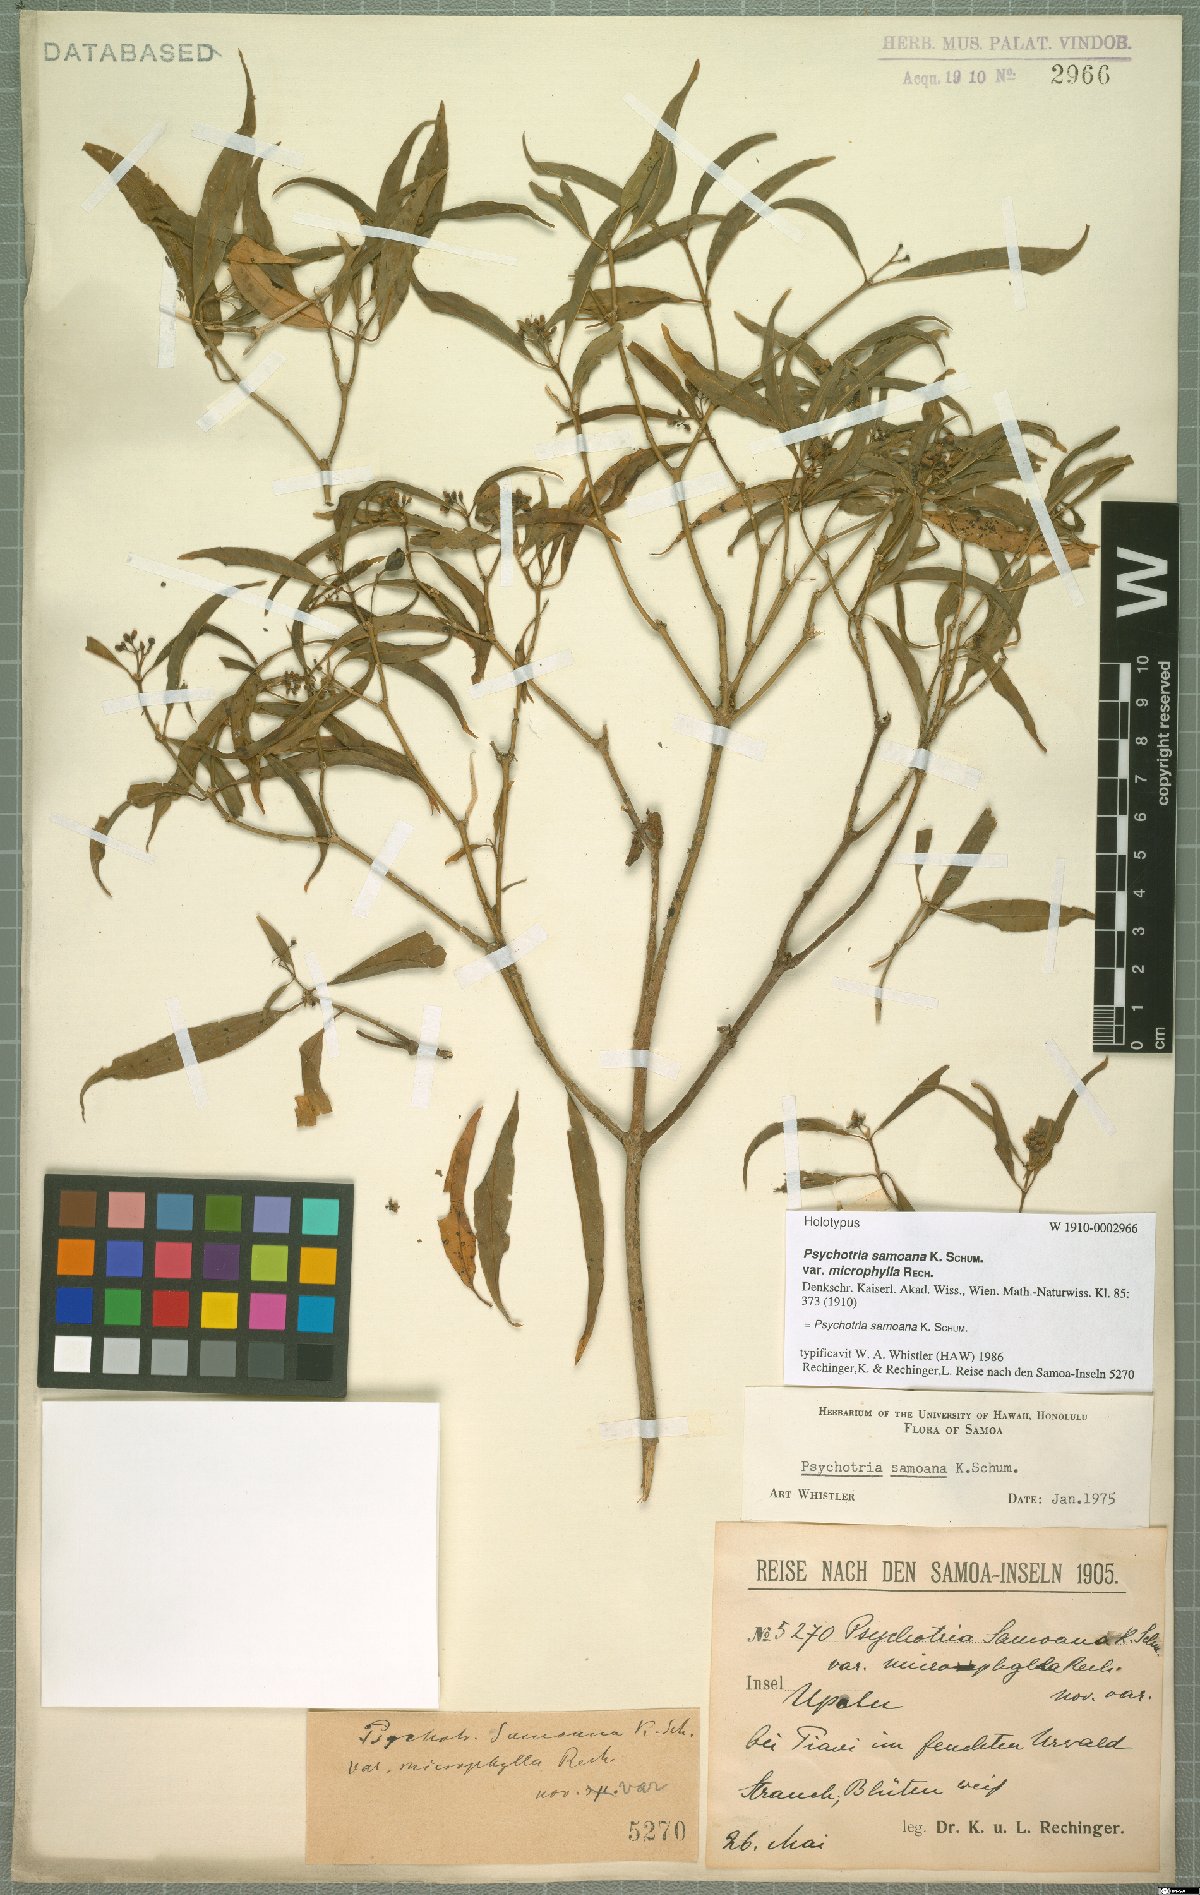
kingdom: Plantae
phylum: Tracheophyta
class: Magnoliopsida
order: Gentianales
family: Rubiaceae
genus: Eumachia
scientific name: Eumachia samoana
